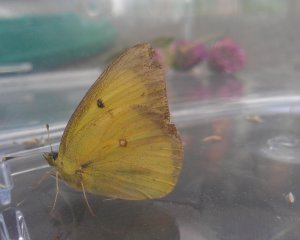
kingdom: Animalia
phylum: Arthropoda
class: Insecta
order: Lepidoptera
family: Pieridae
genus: Colias
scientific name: Colias philodice
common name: Clouded Sulphur
